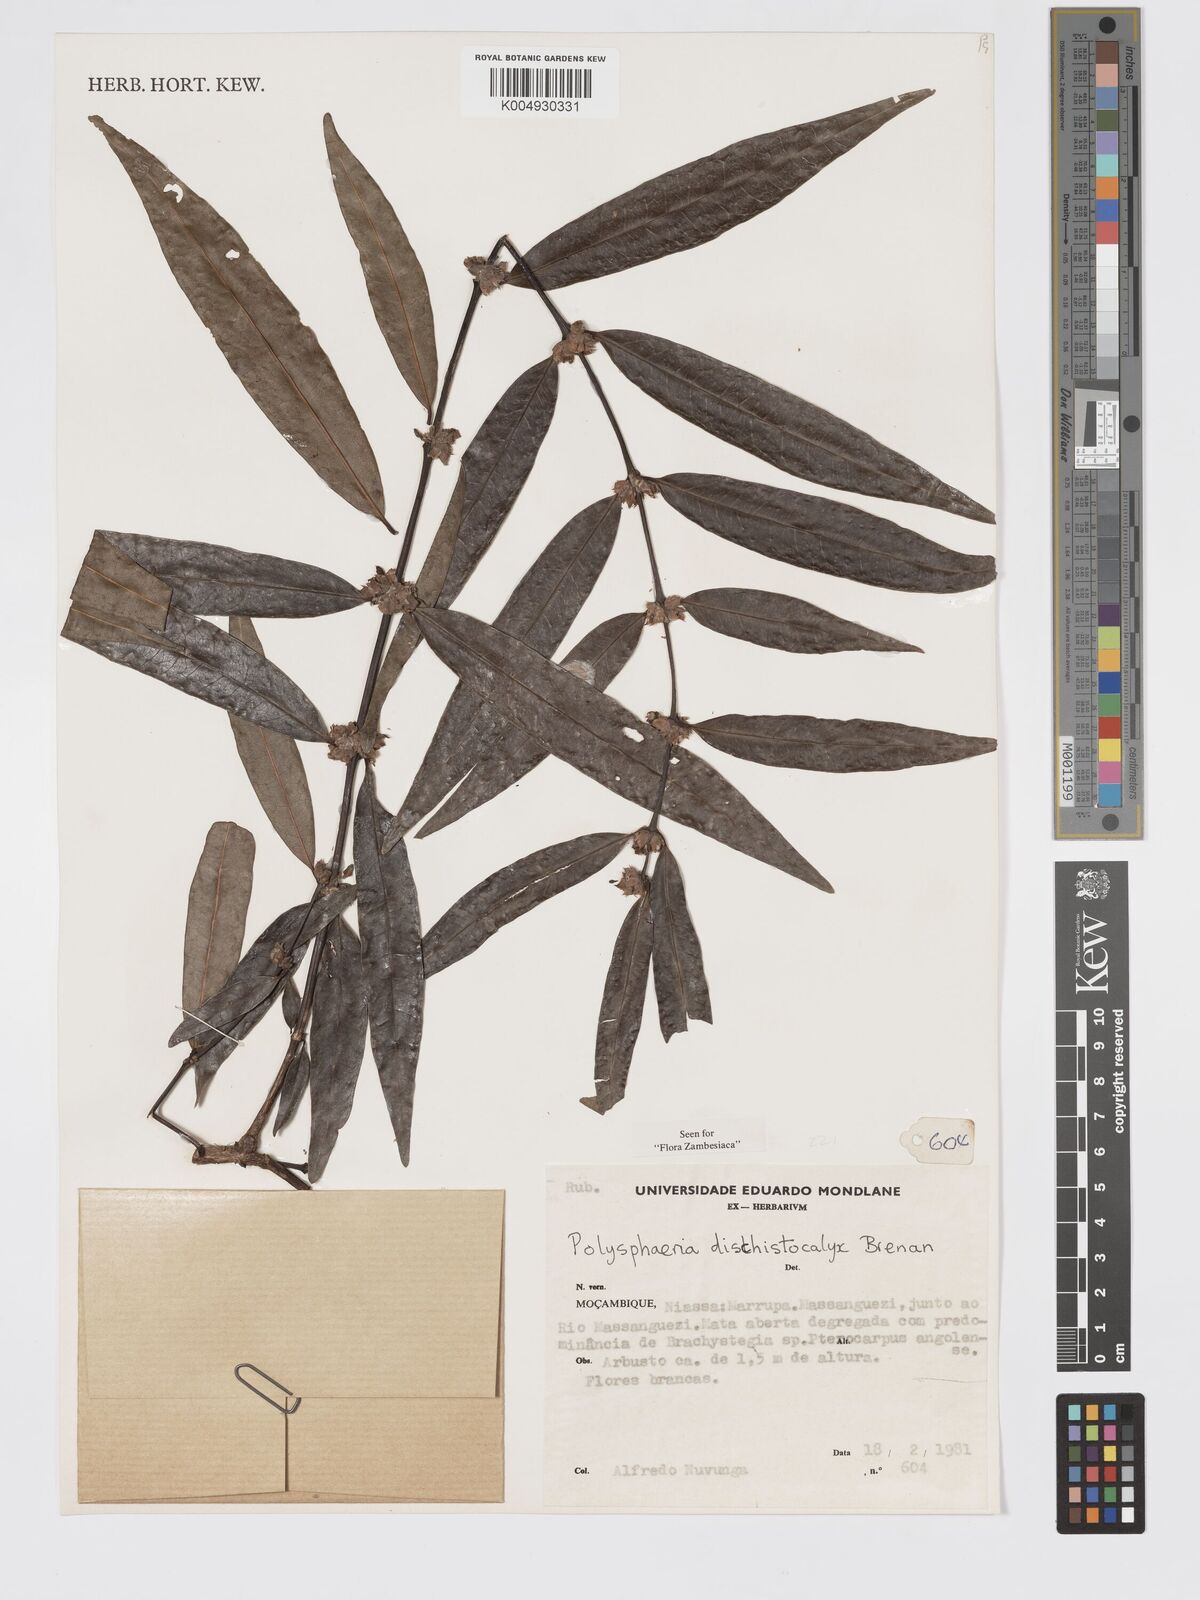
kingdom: Plantae
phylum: Tracheophyta
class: Magnoliopsida
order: Gentianales
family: Rubiaceae
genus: Polysphaeria
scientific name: Polysphaeria dischistocalyx
